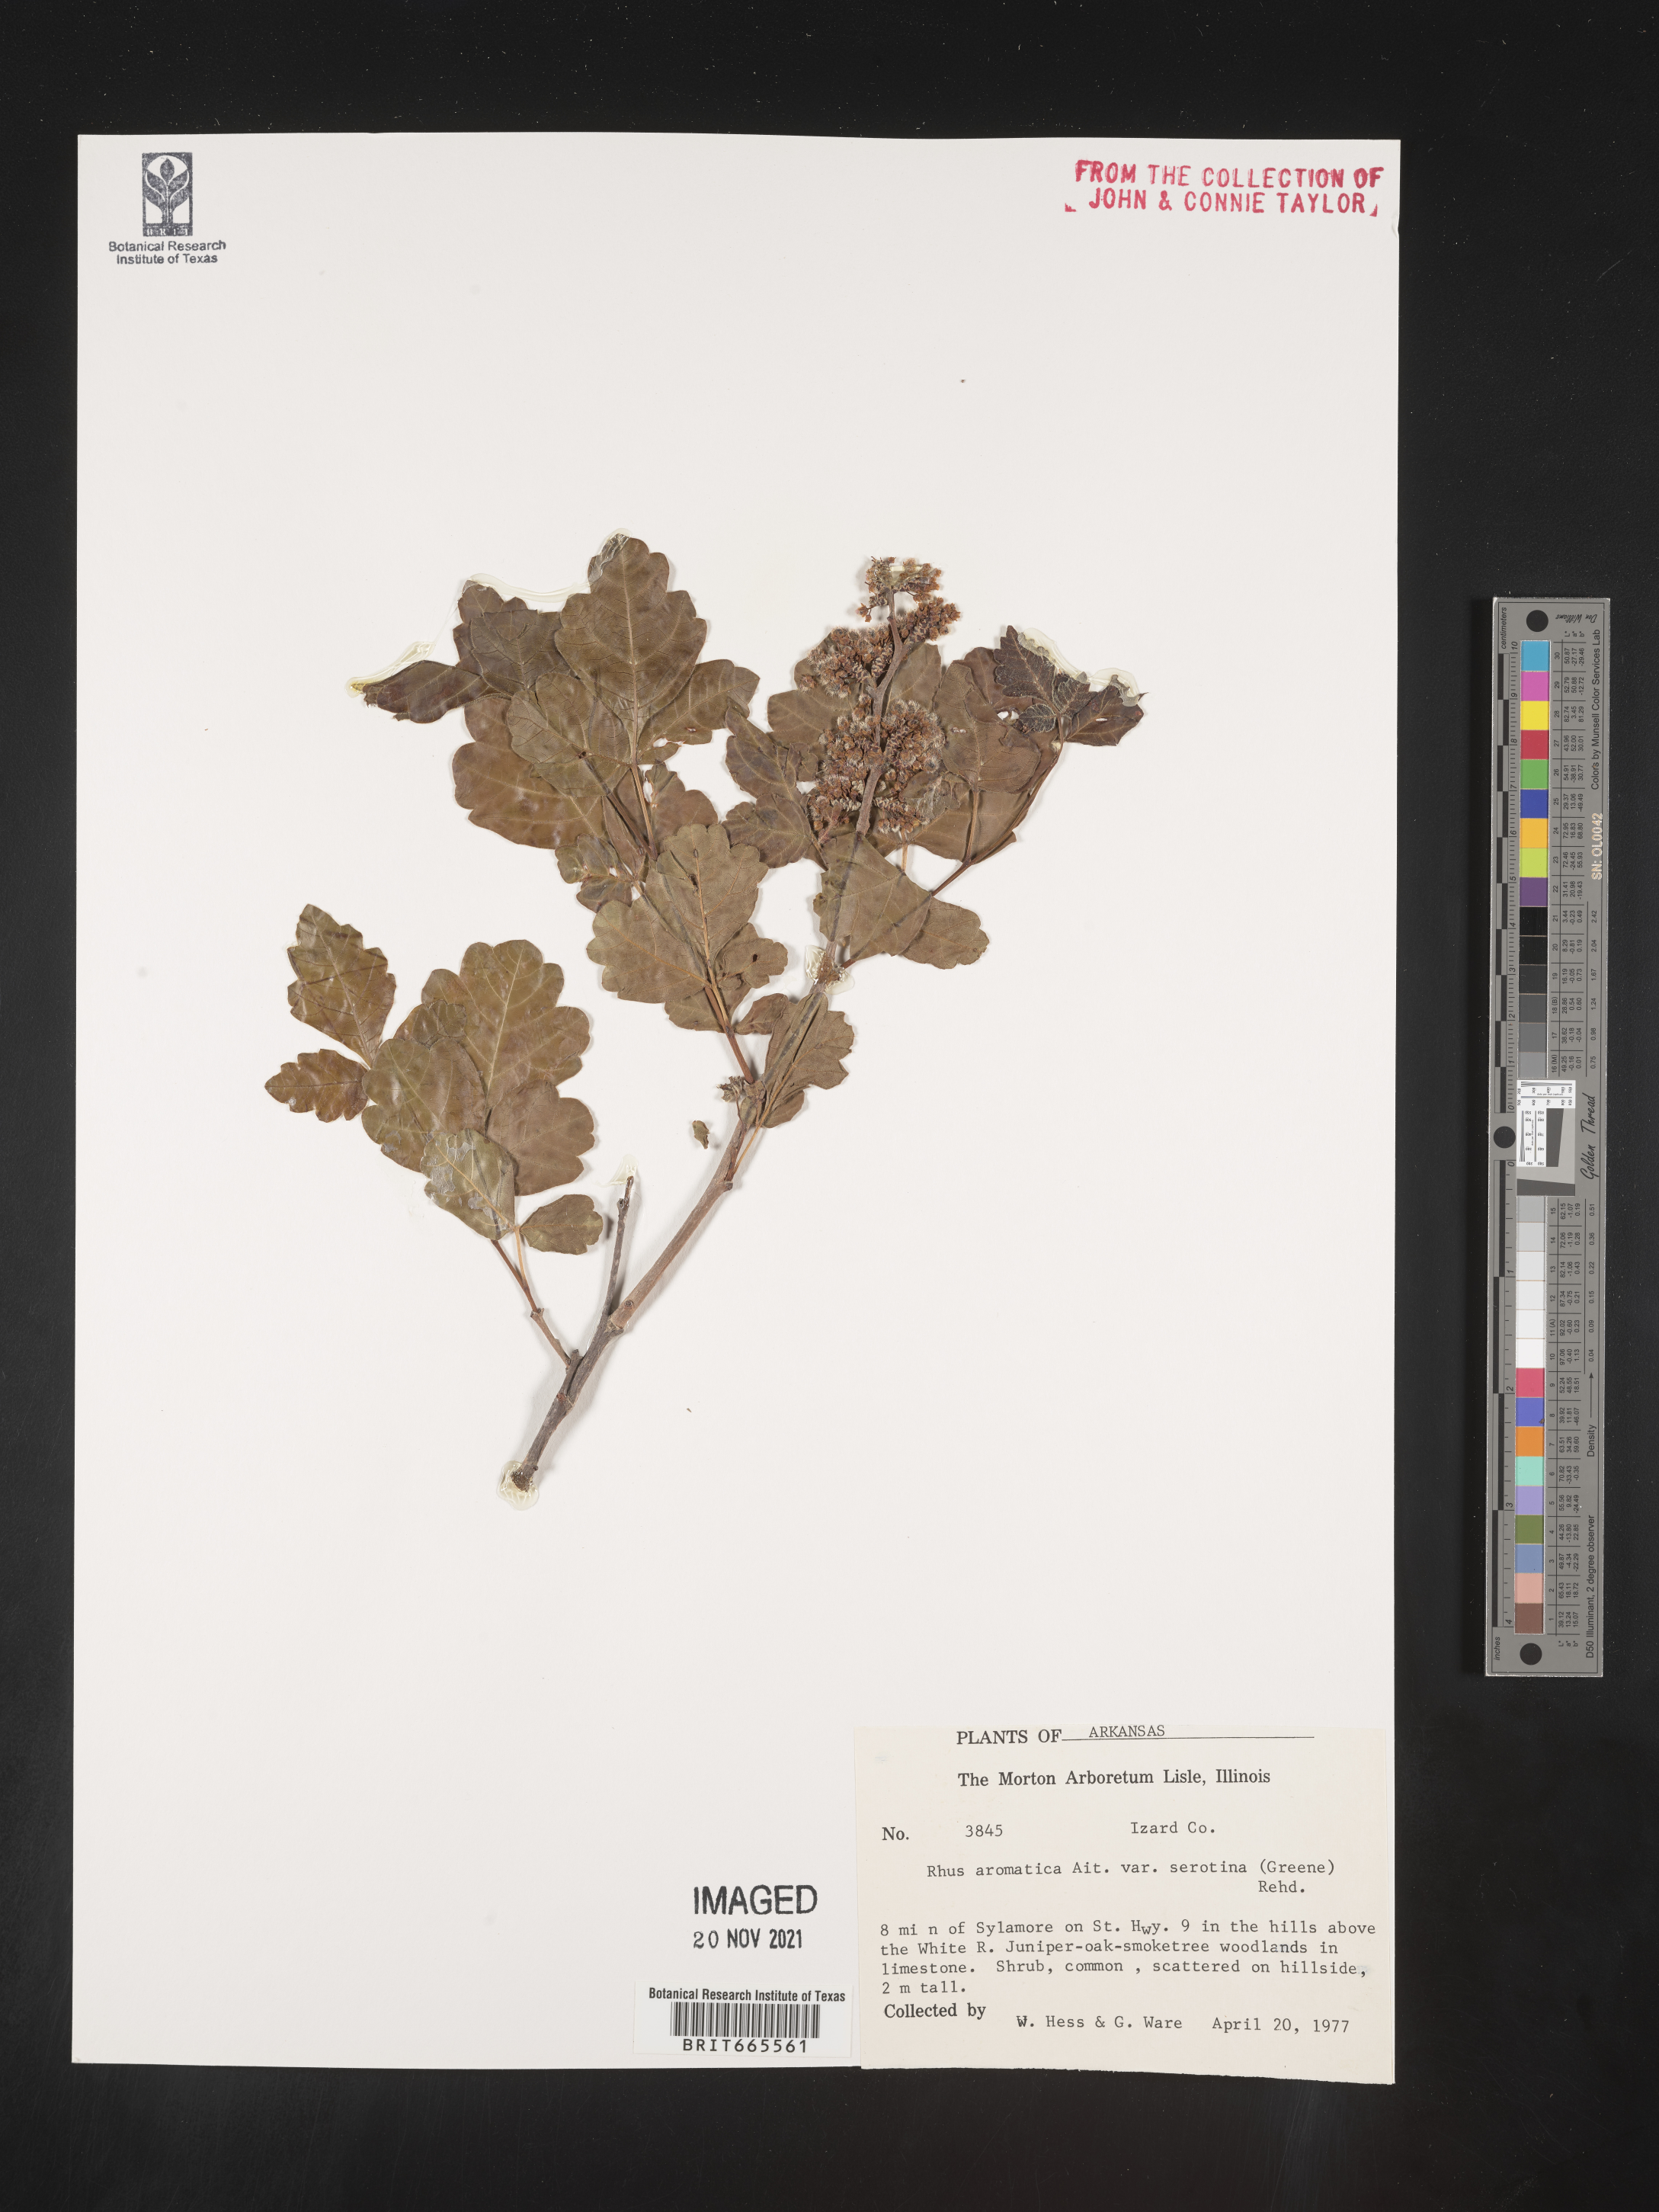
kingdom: Plantae
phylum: Tracheophyta
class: Magnoliopsida
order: Sapindales
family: Anacardiaceae
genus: Rhus
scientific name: Rhus aromatica
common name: Aromatic sumac
